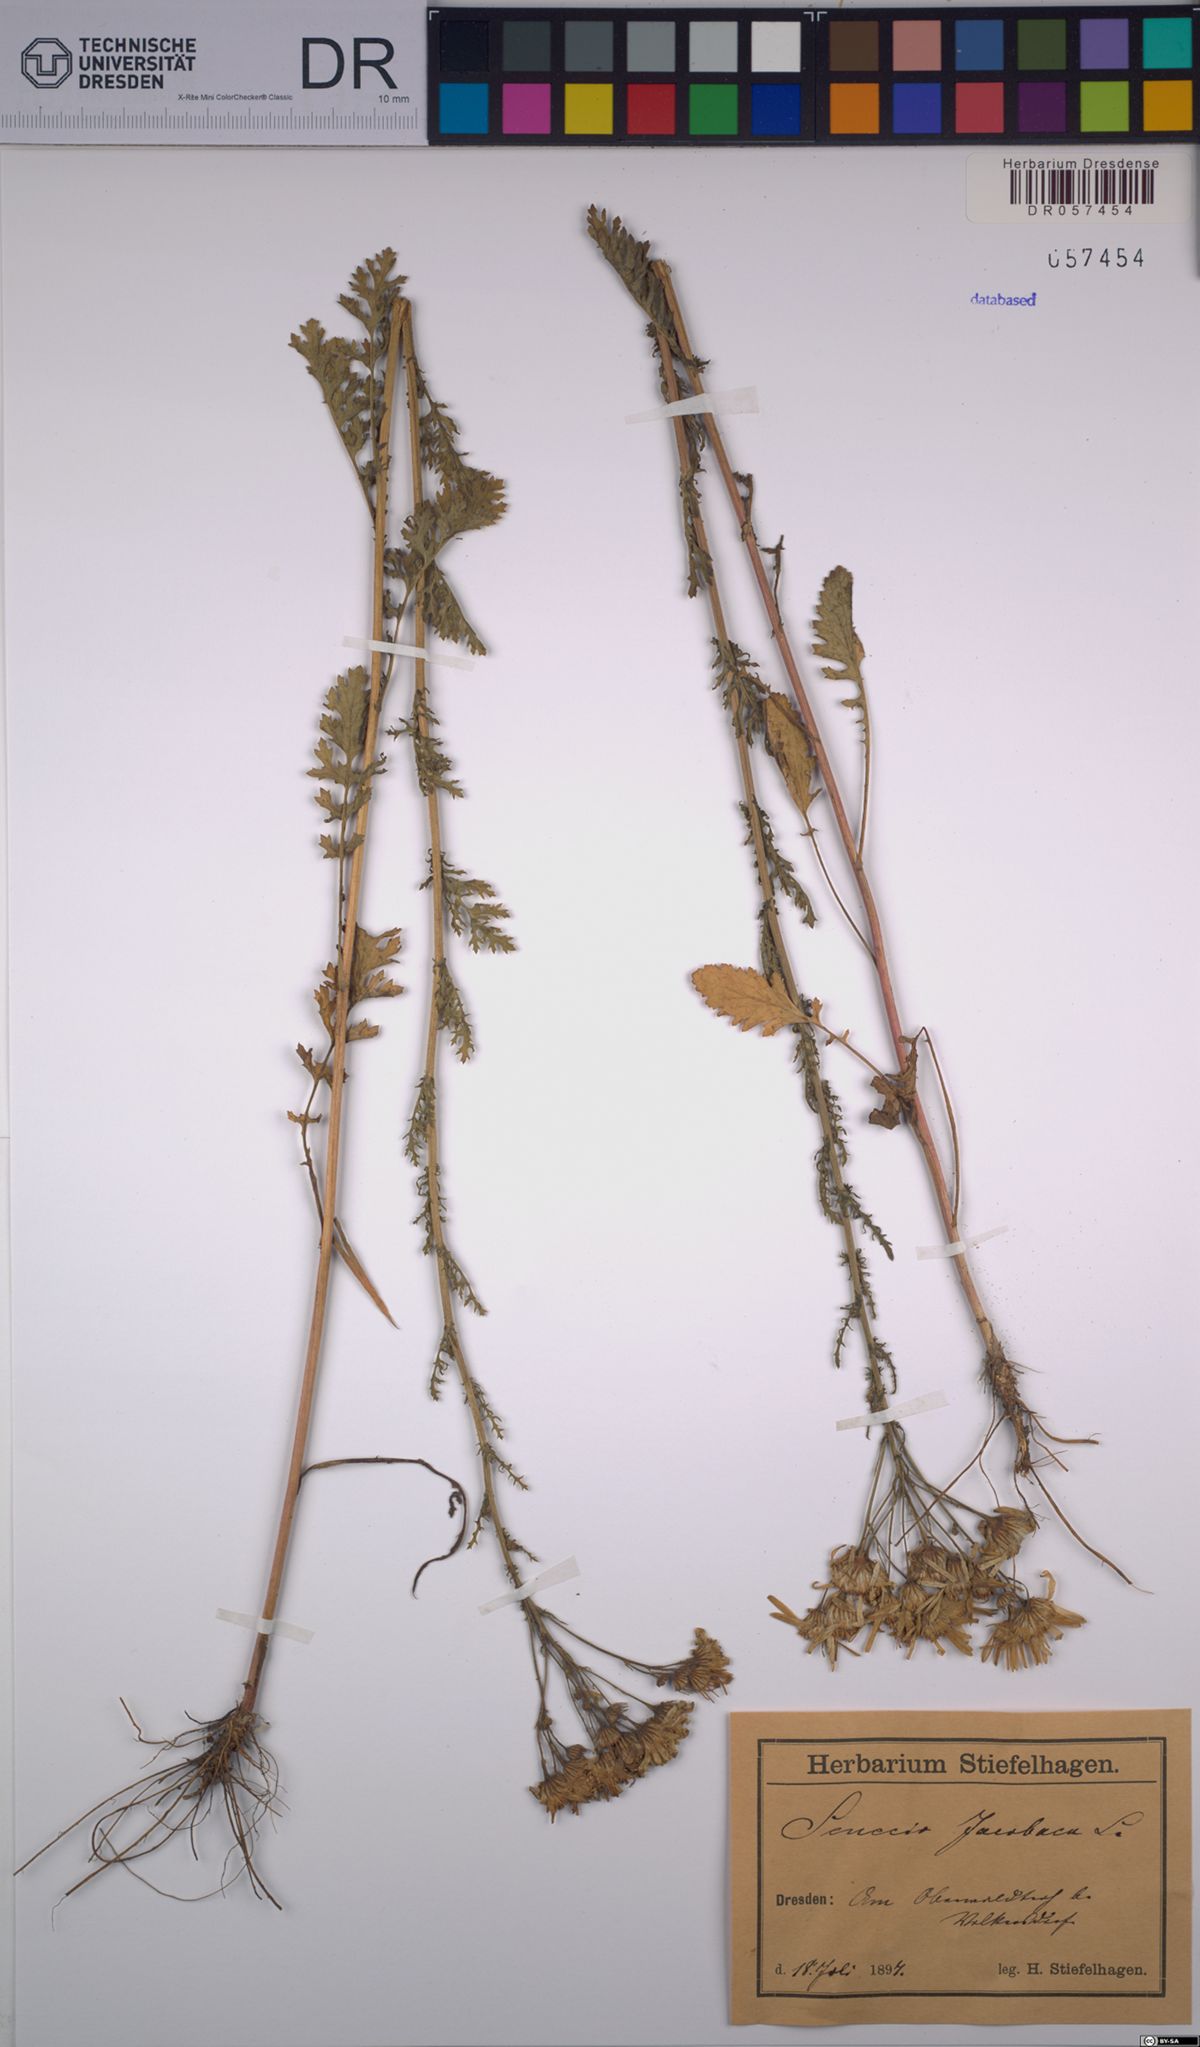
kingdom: Plantae
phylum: Tracheophyta
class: Magnoliopsida
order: Asterales
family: Asteraceae
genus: Jacobaea
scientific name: Jacobaea vulgaris
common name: Stinking willie
